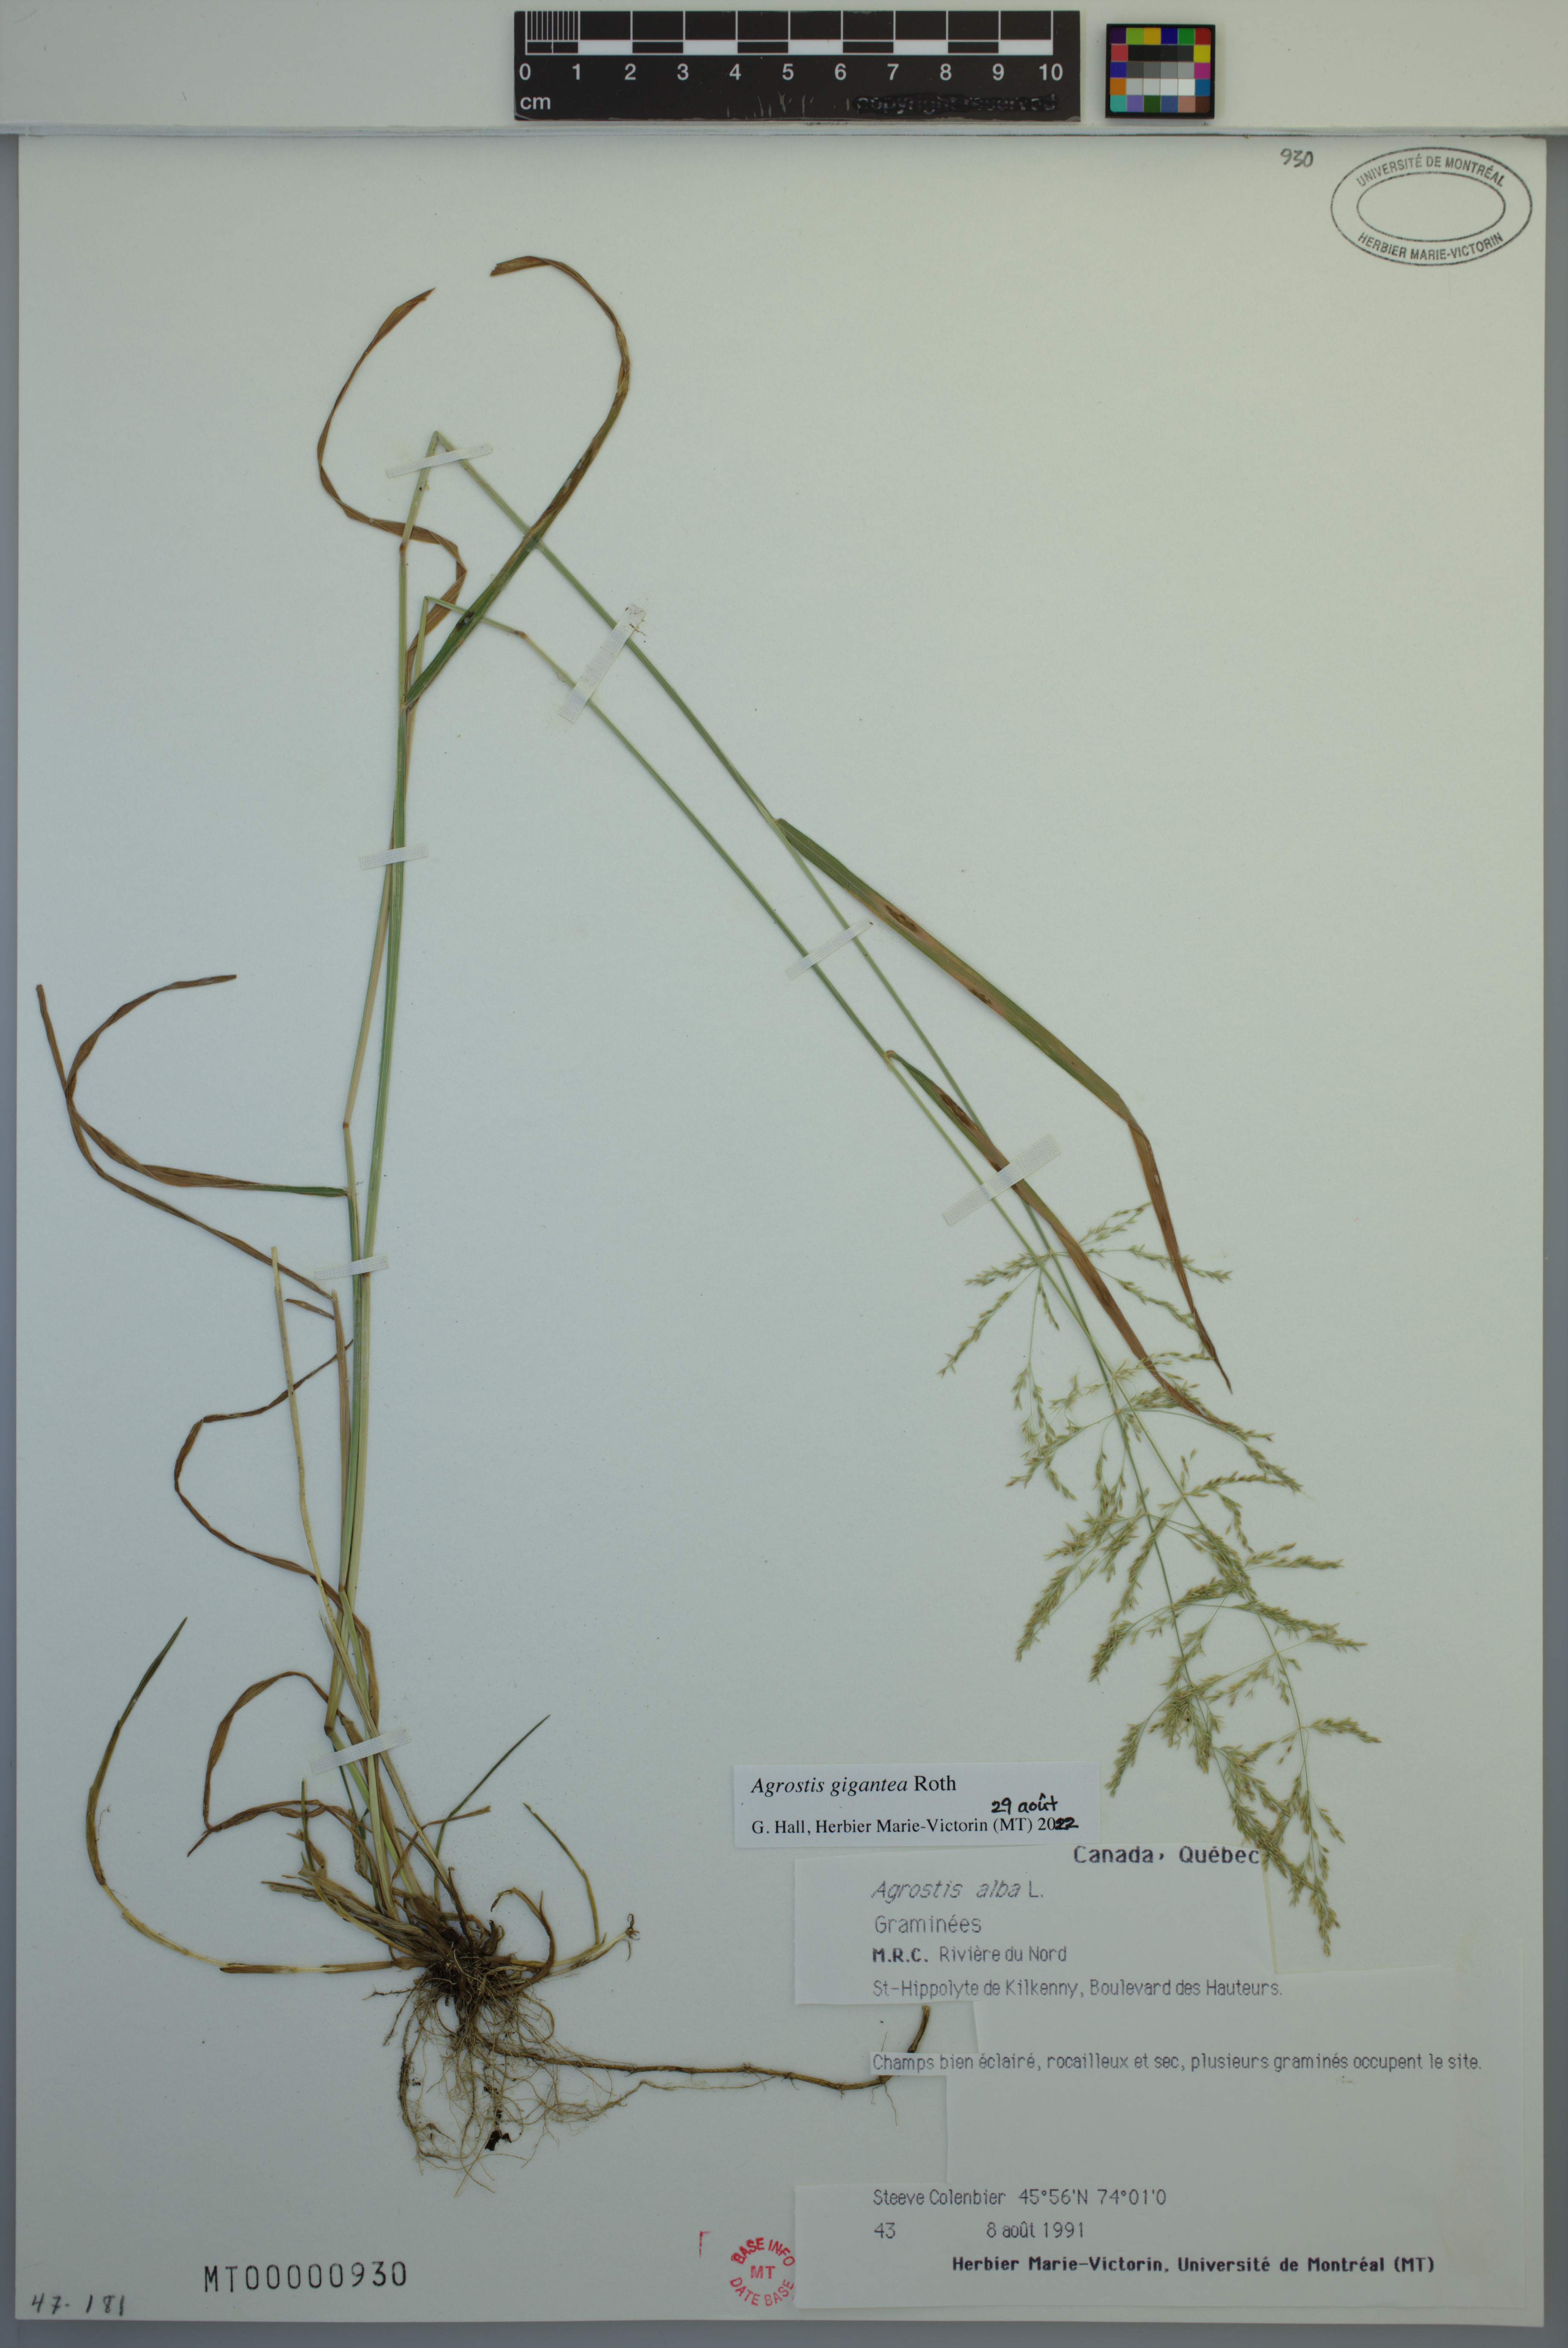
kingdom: Plantae
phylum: Tracheophyta
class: Liliopsida
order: Poales
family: Poaceae
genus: Agrostis
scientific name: Agrostis gigantea
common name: Black bent
